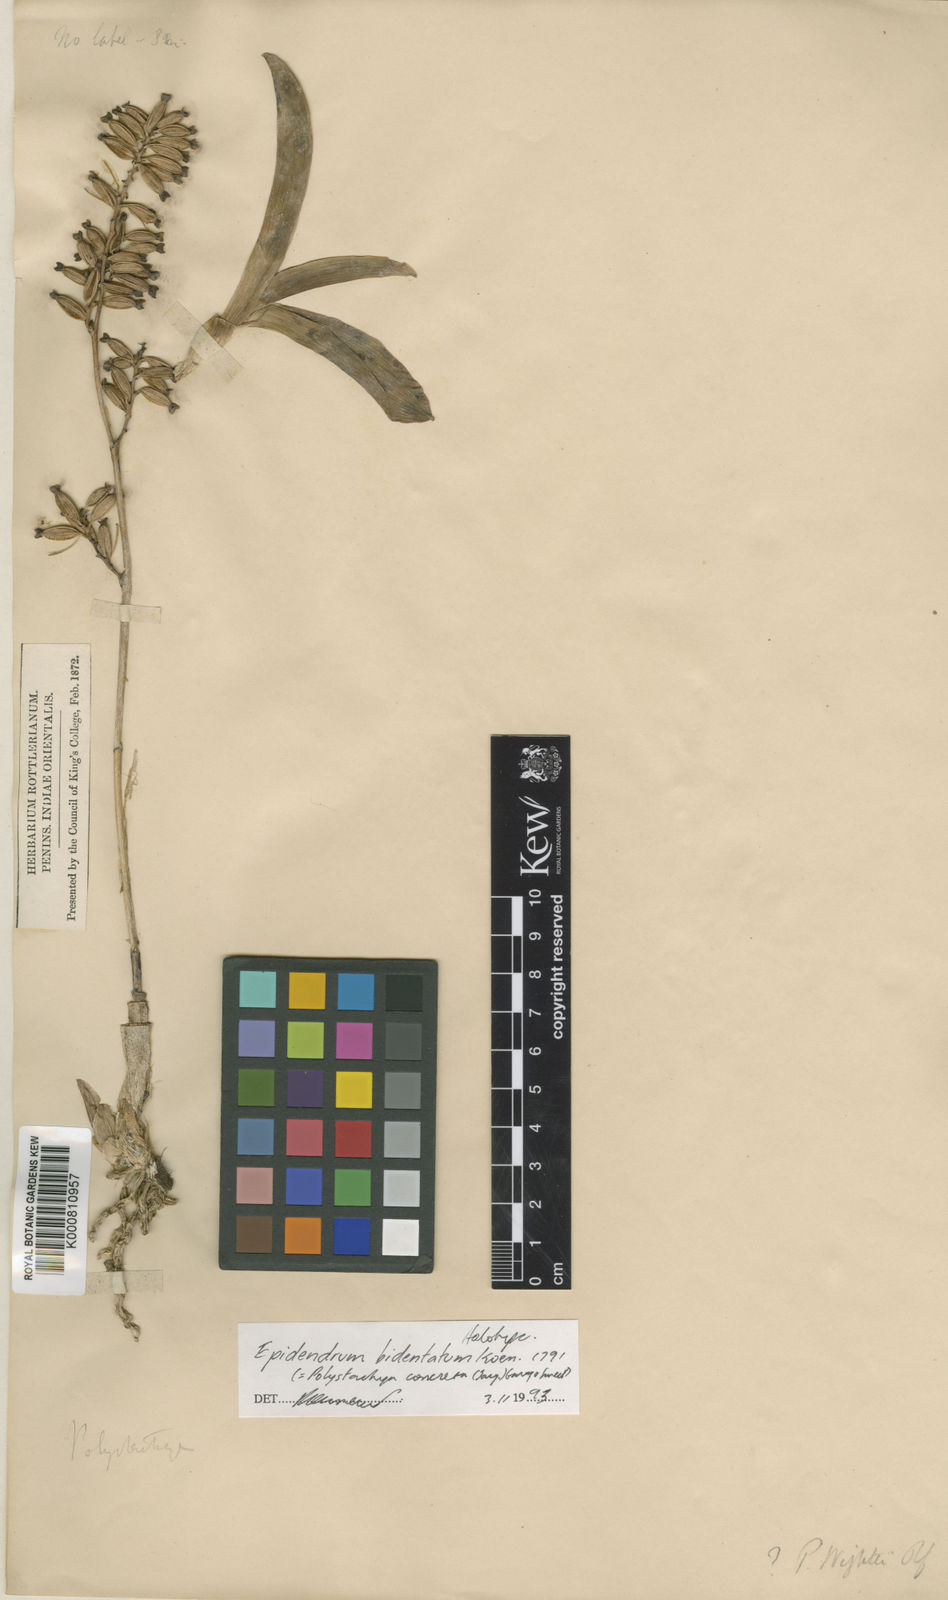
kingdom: Plantae
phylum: Tracheophyta
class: Liliopsida
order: Asparagales
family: Orchidaceae
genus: Polystachya
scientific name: Polystachya concreta
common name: Greater yellowspike orchid
